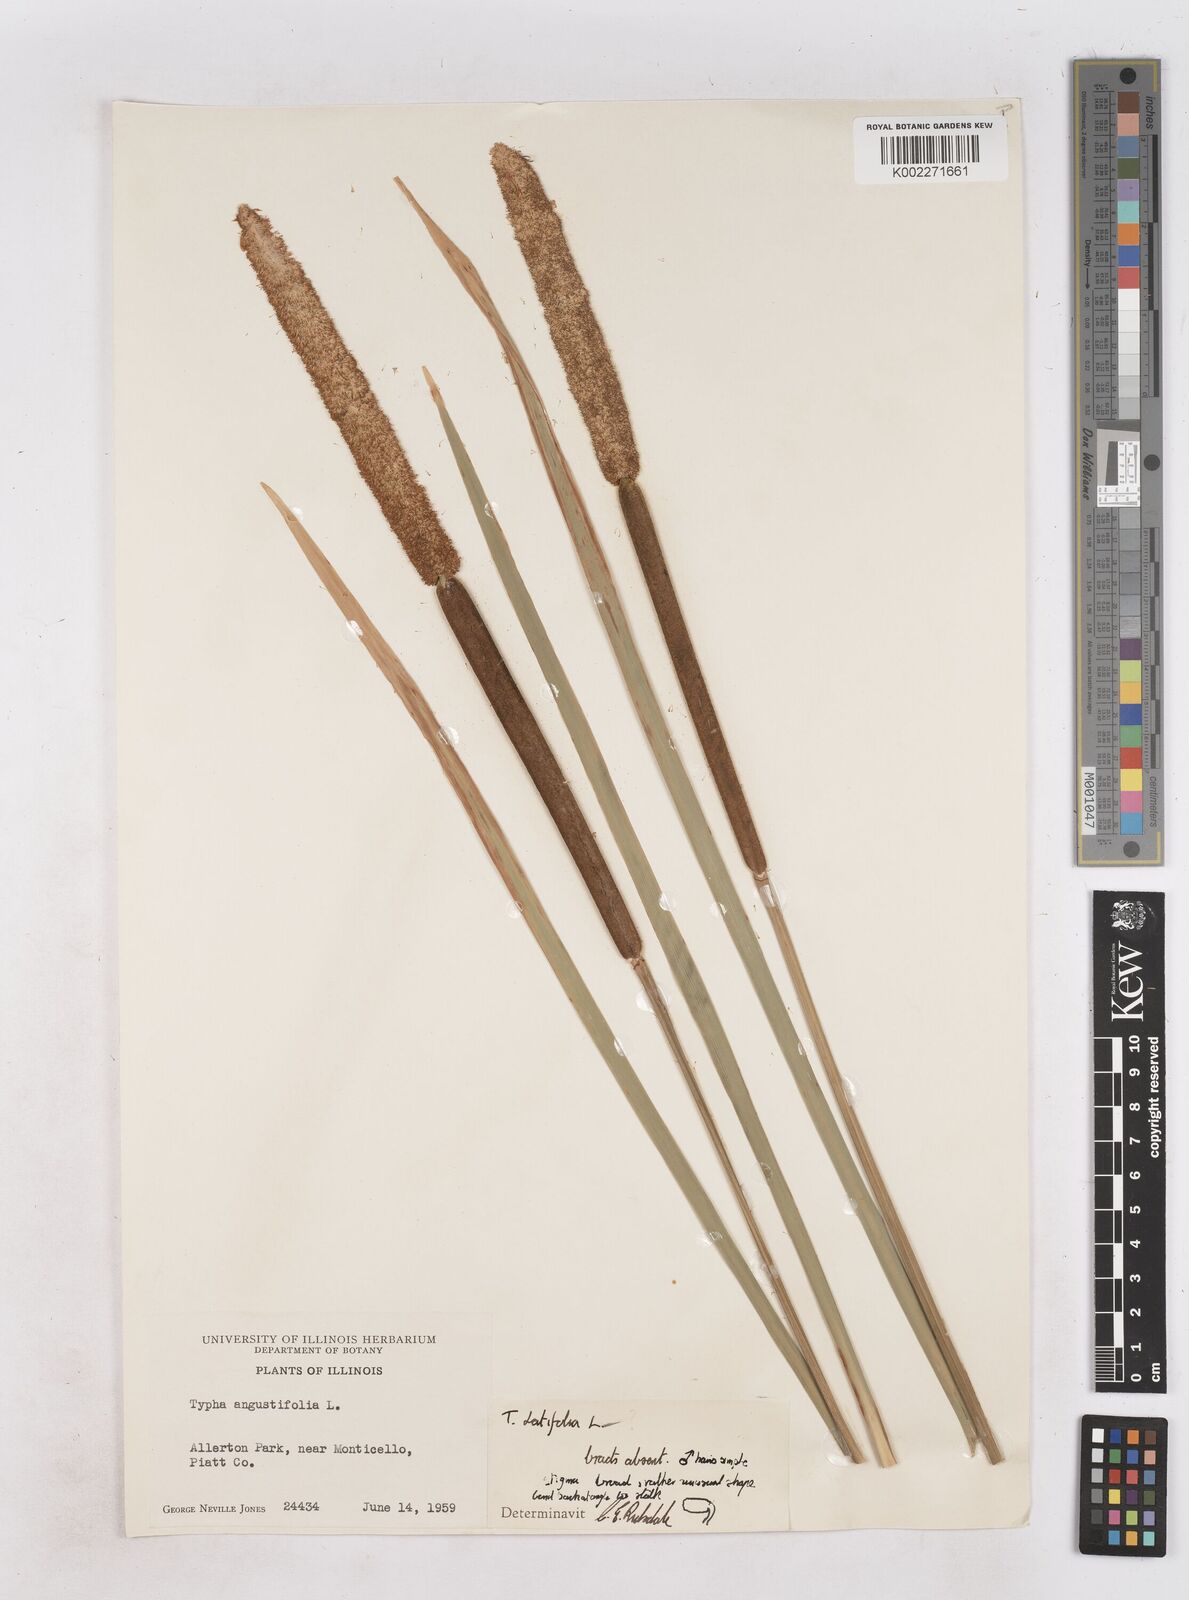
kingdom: Plantae
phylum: Tracheophyta
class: Liliopsida
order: Poales
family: Typhaceae
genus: Typha
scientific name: Typha
